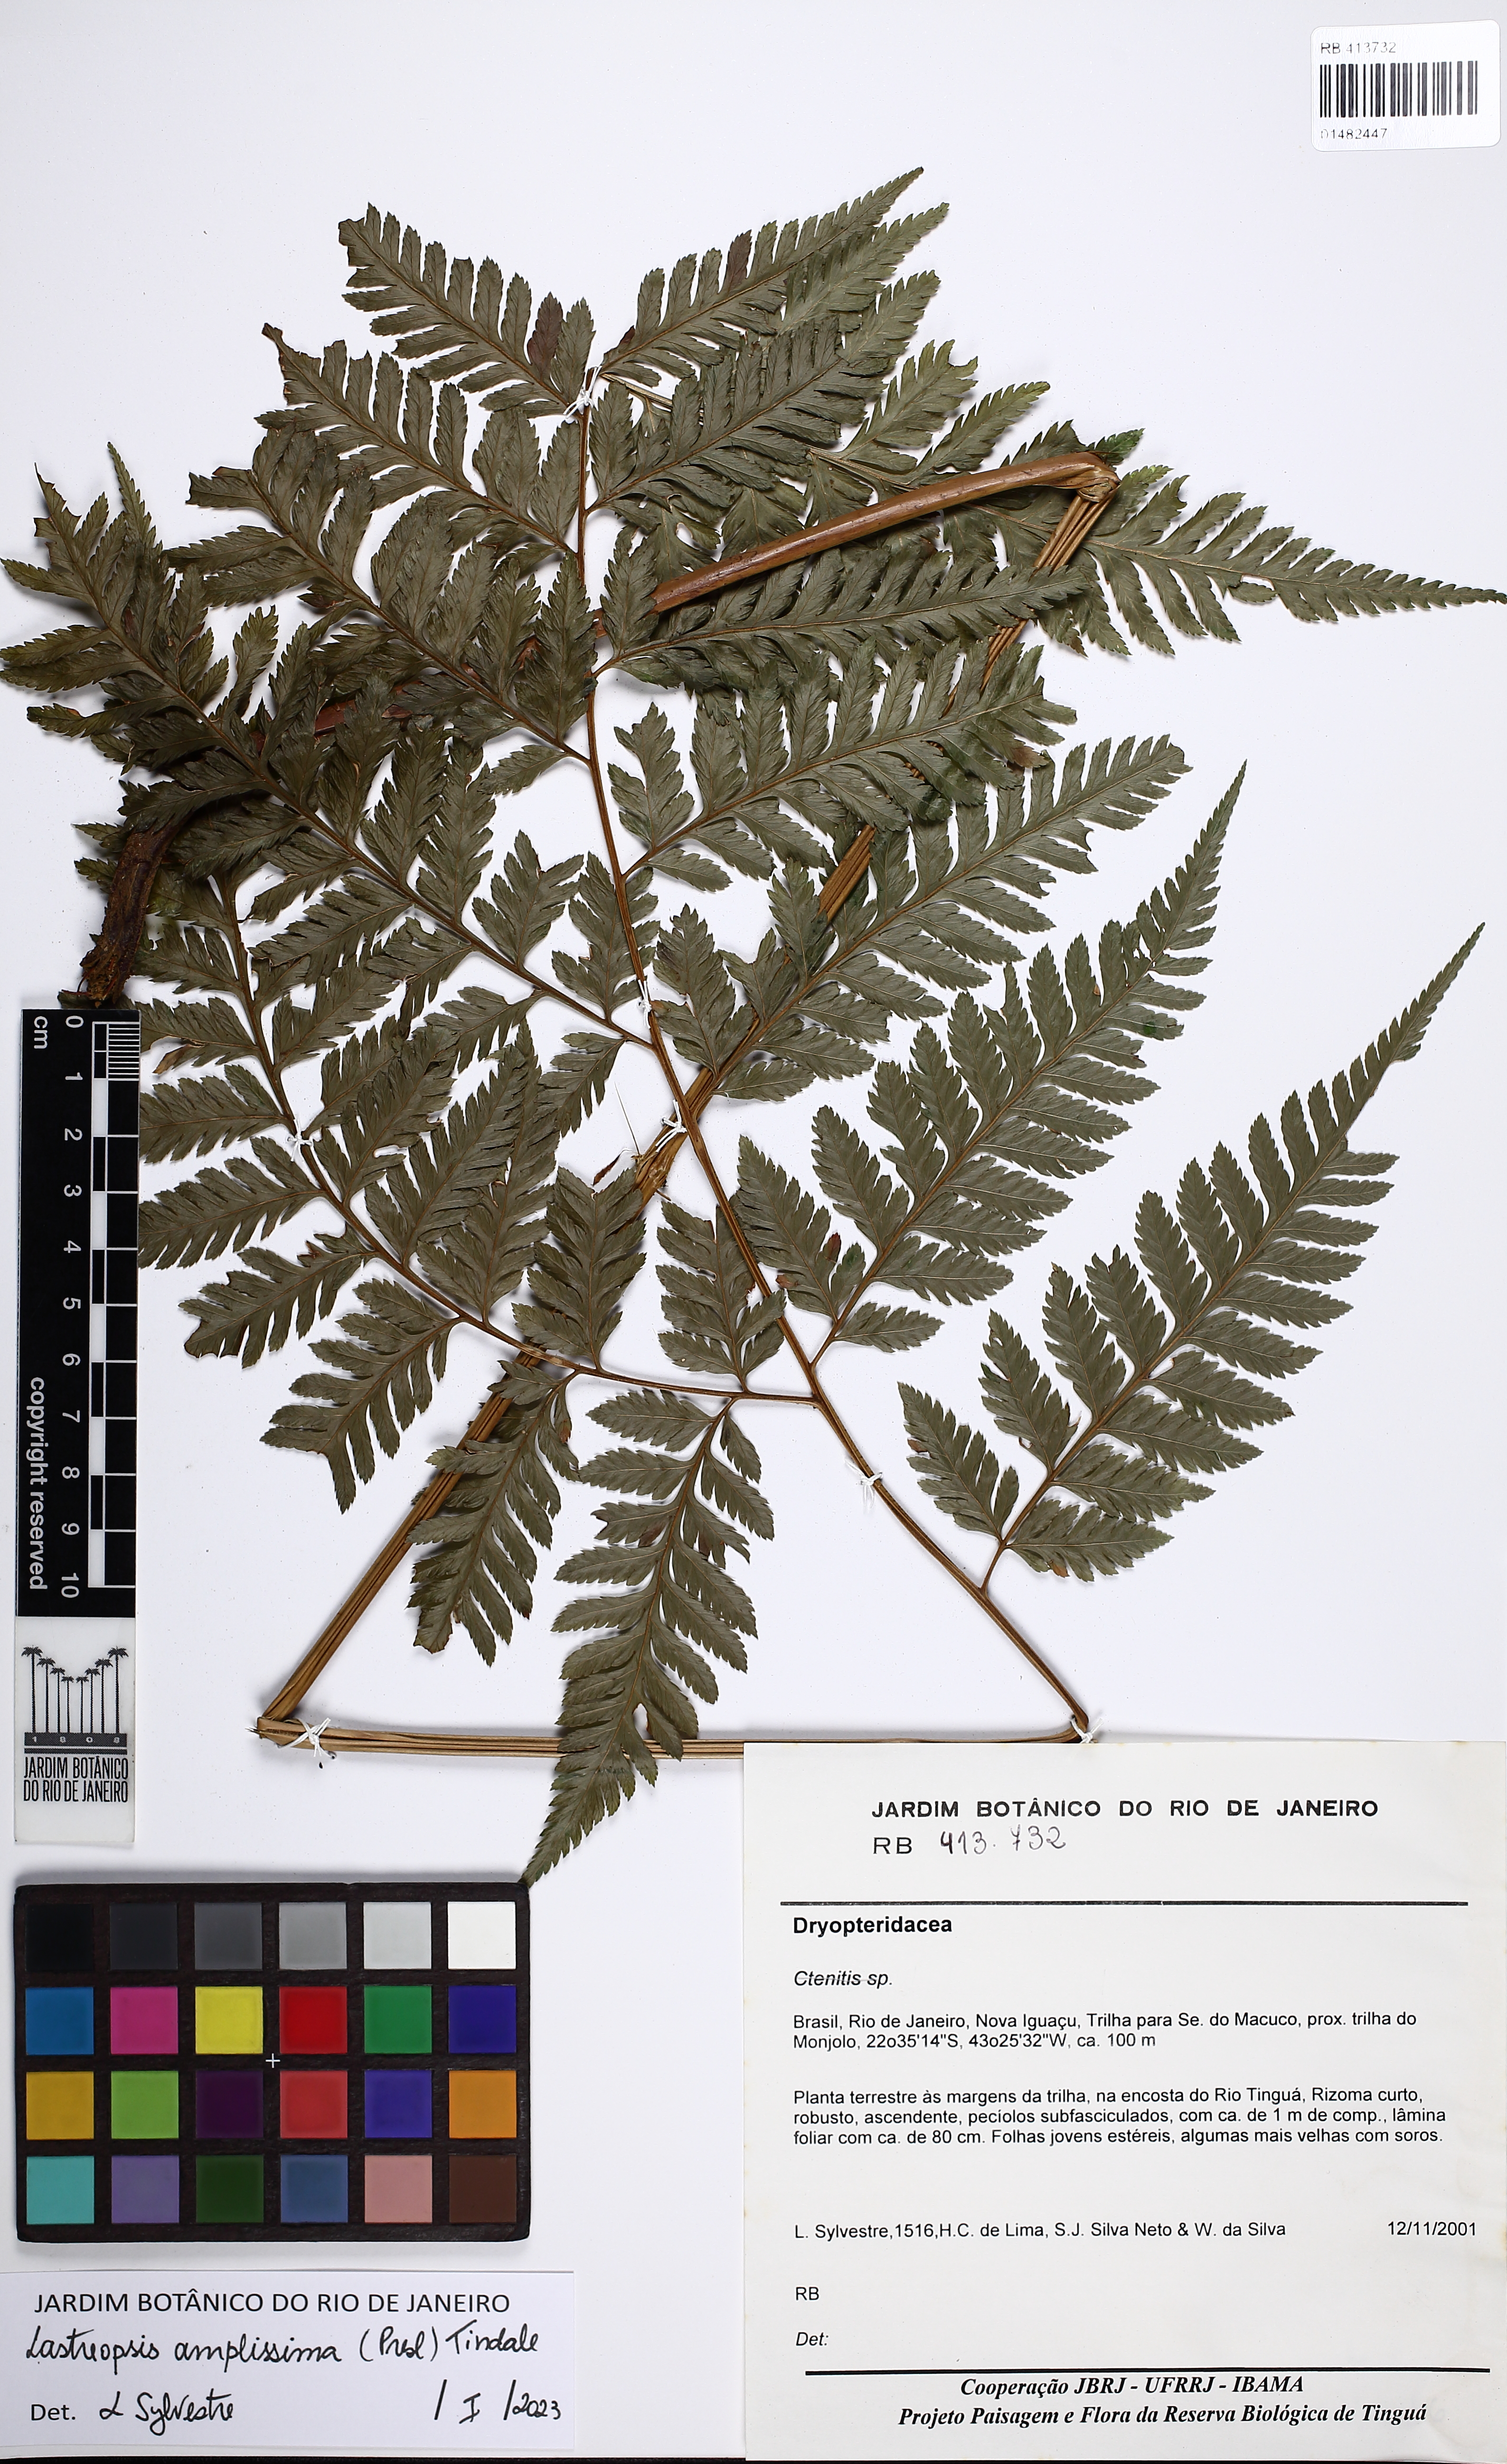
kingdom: Plantae
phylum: Tracheophyta
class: Polypodiopsida
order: Polypodiales
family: Dryopteridaceae
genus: Lastreopsis
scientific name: Lastreopsis amplissima
